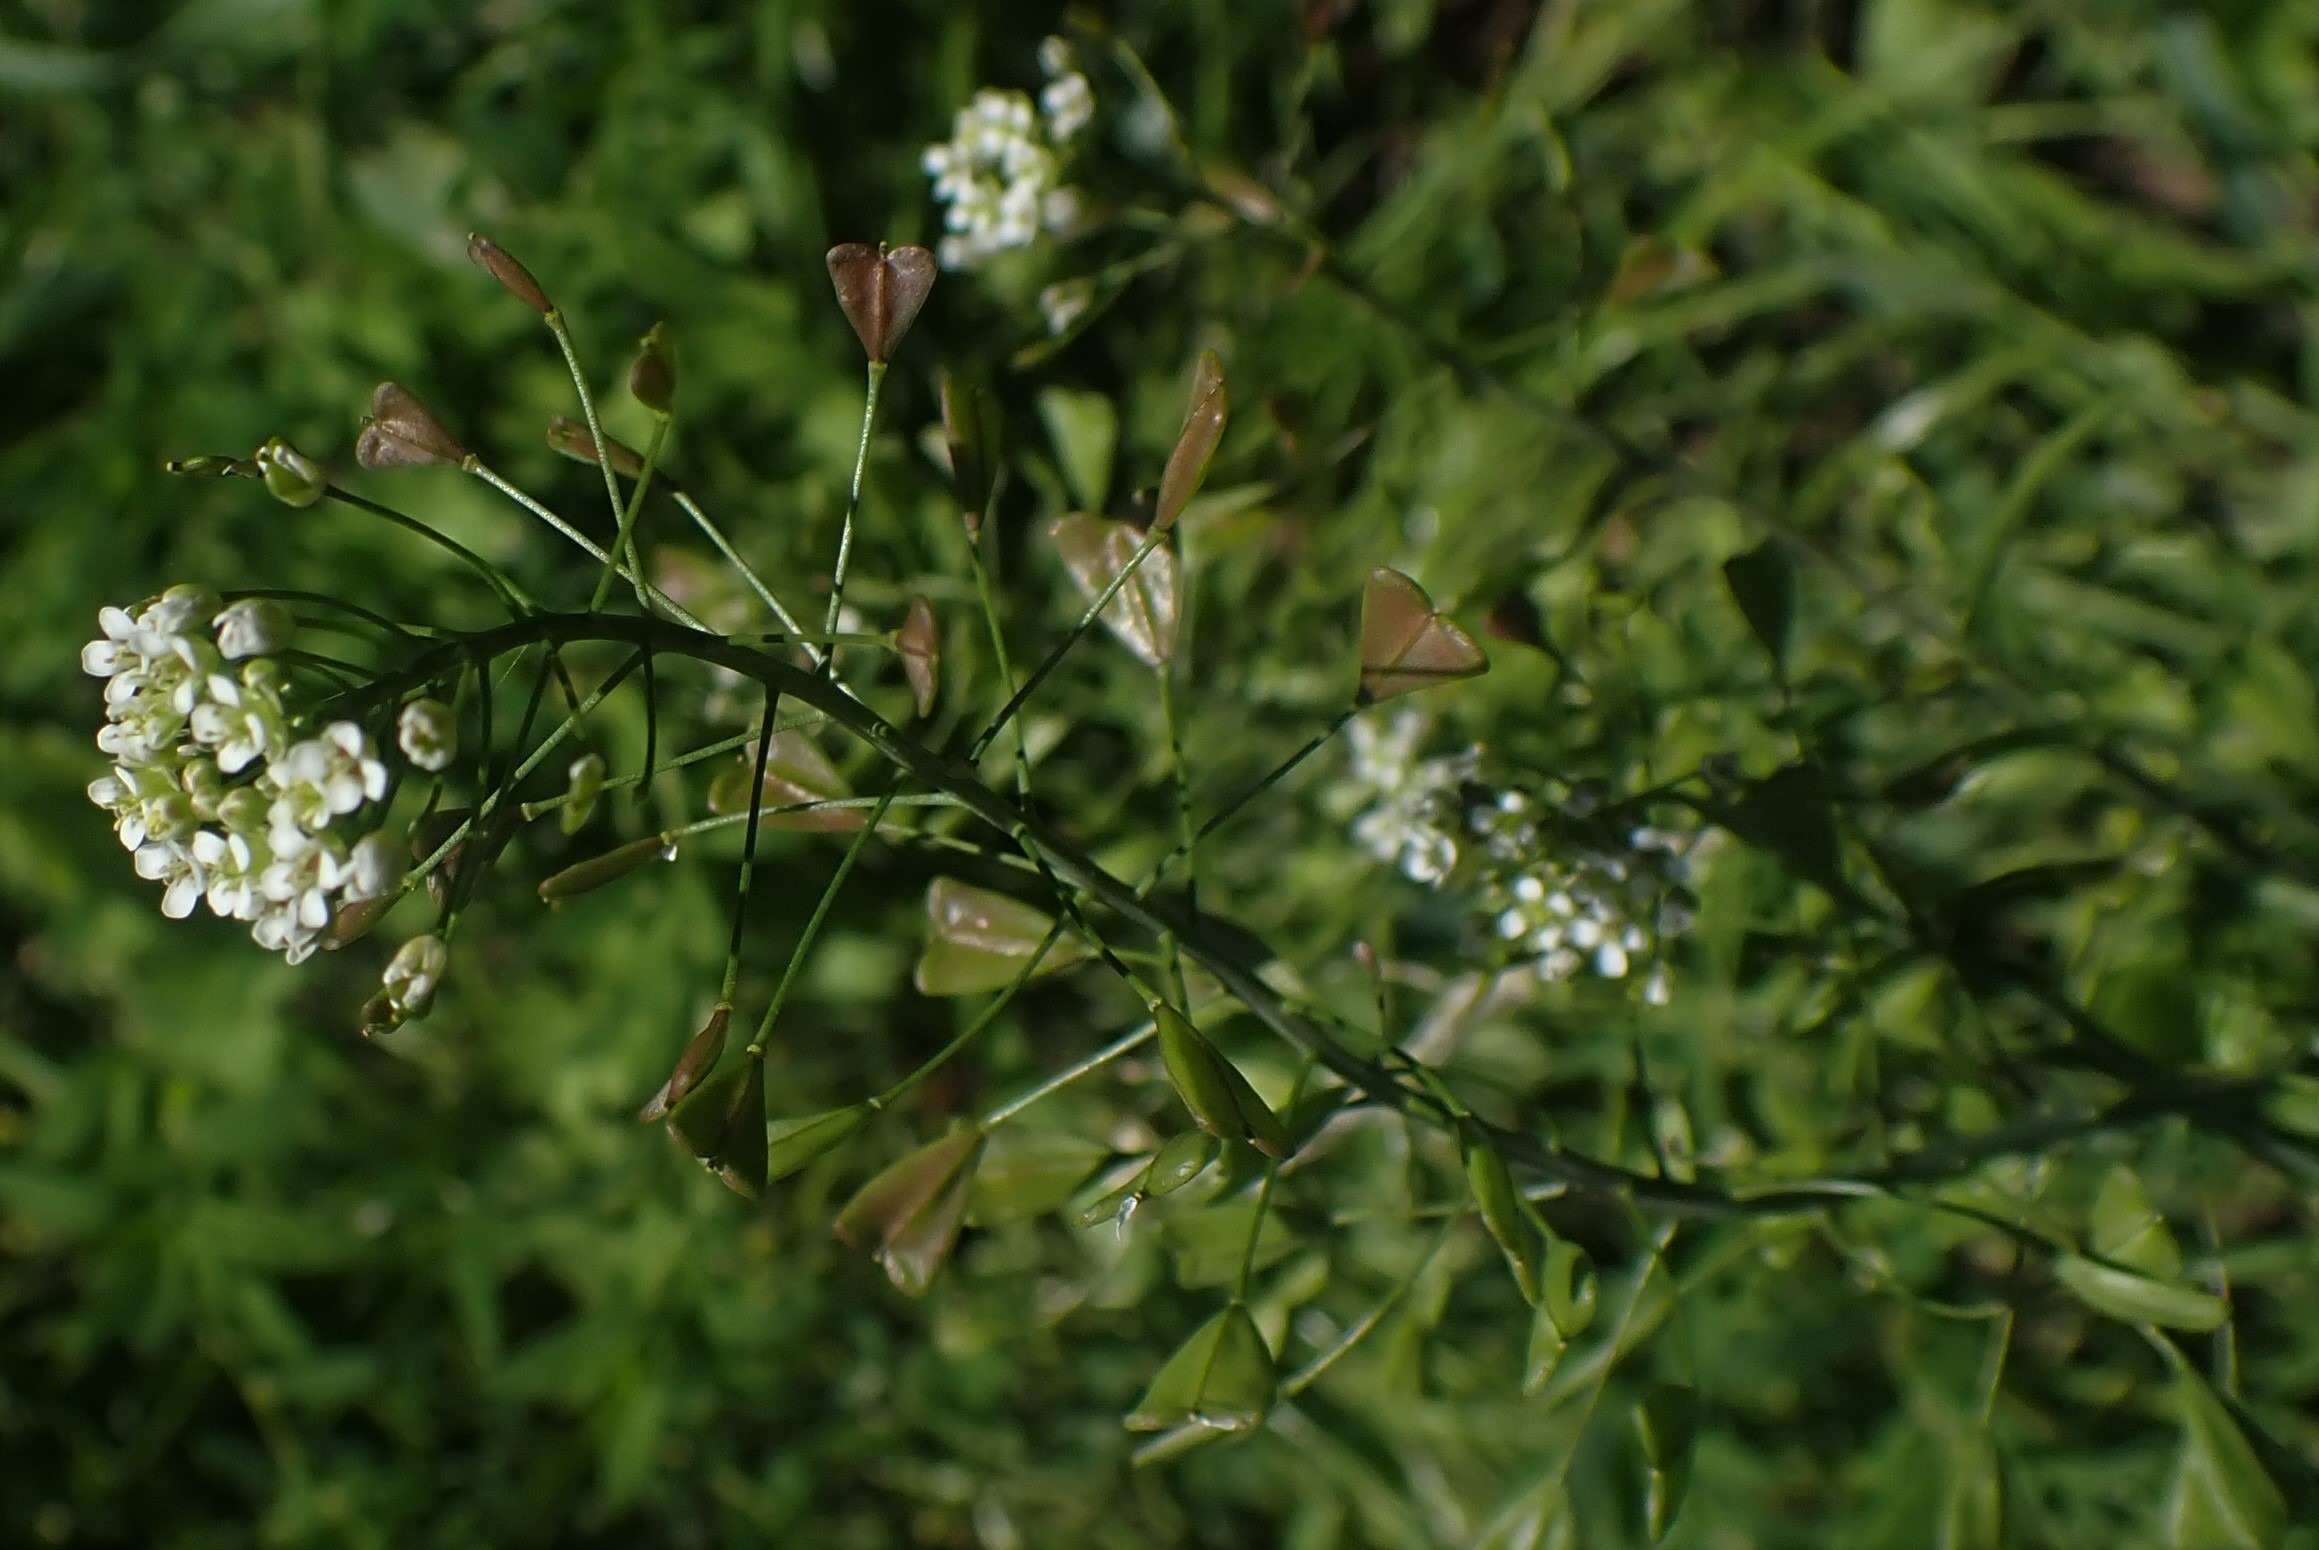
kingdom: Plantae
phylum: Tracheophyta
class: Magnoliopsida
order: Brassicales
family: Brassicaceae
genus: Capsella
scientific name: Capsella bursa-pastoris
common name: Hyrdetaske
